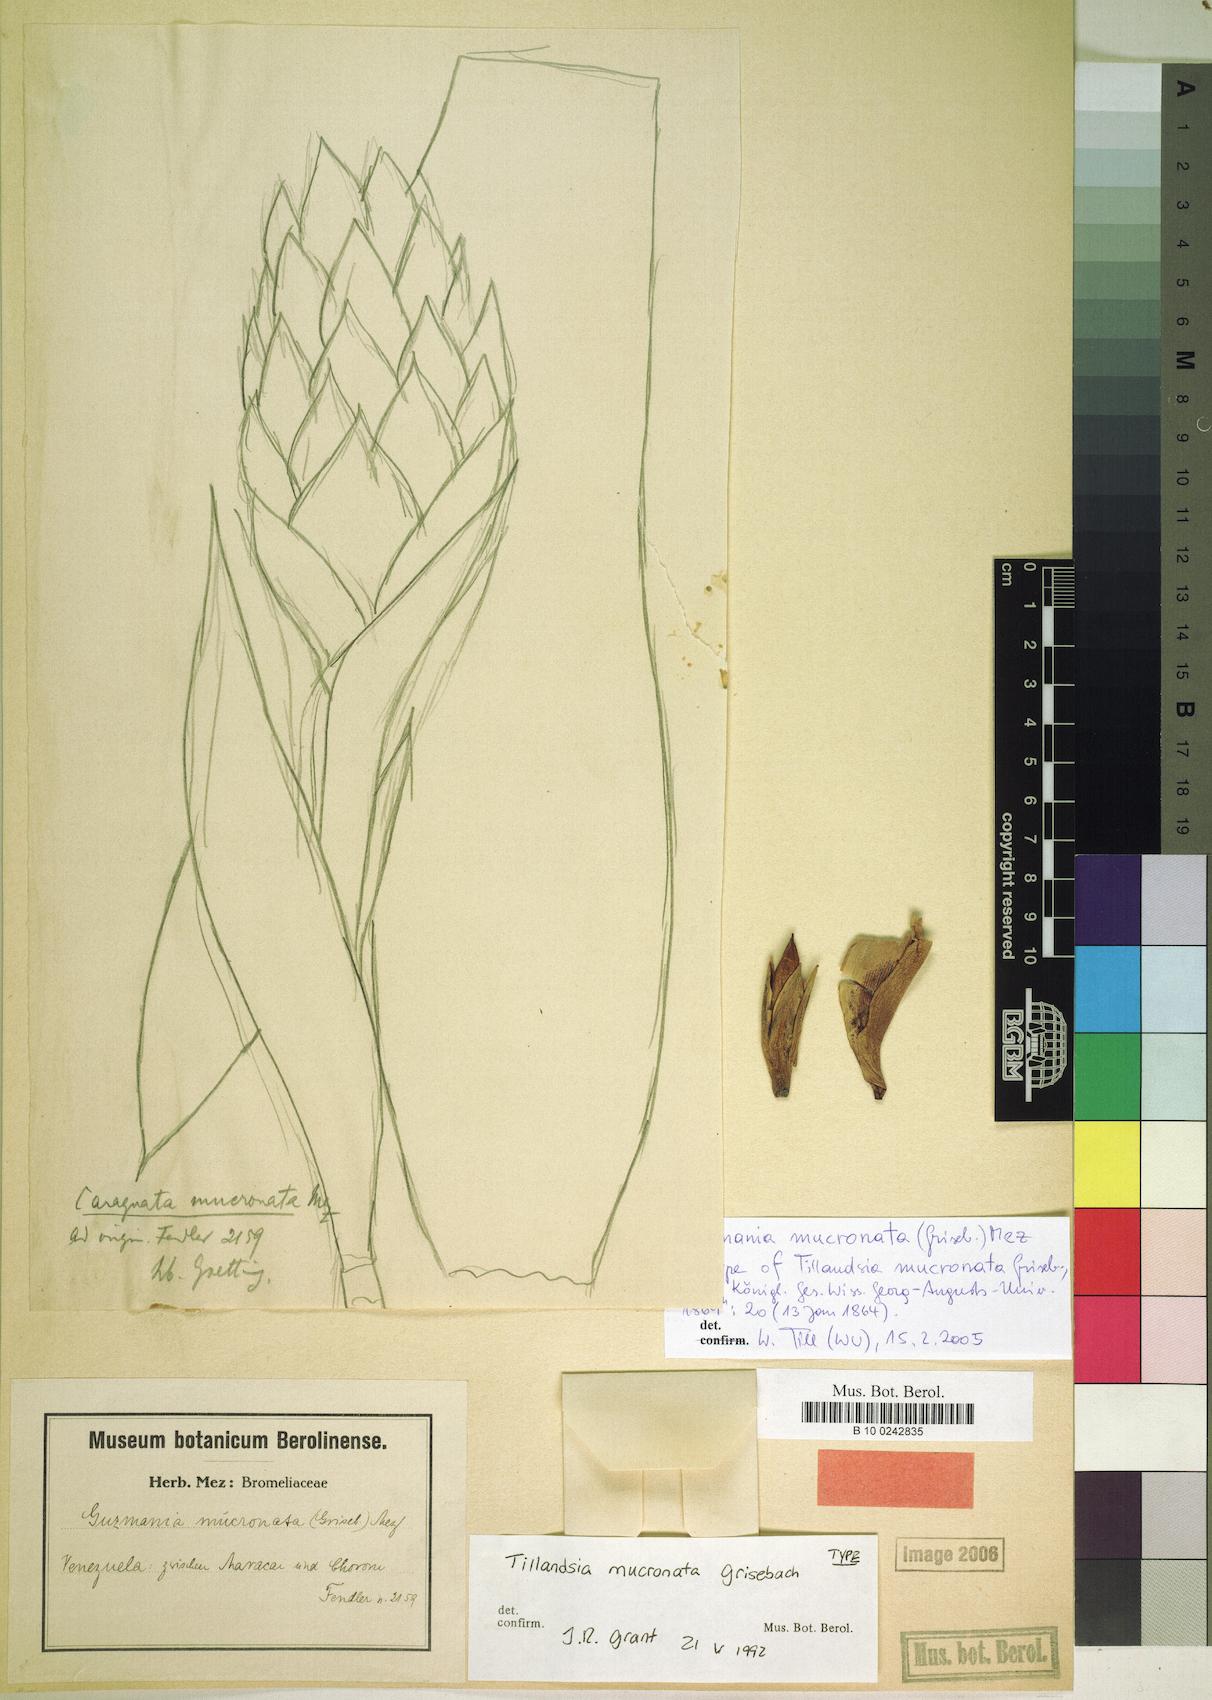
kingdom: Plantae
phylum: Tracheophyta
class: Liliopsida
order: Poales
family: Bromeliaceae
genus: Guzmania
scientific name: Guzmania mucronata
